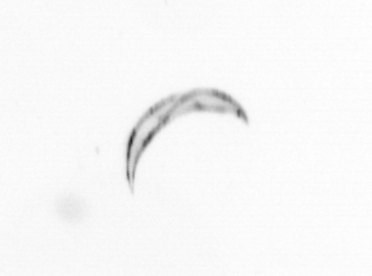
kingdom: Chromista
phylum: Ochrophyta
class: Bacillariophyceae
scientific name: Bacillariophyceae
